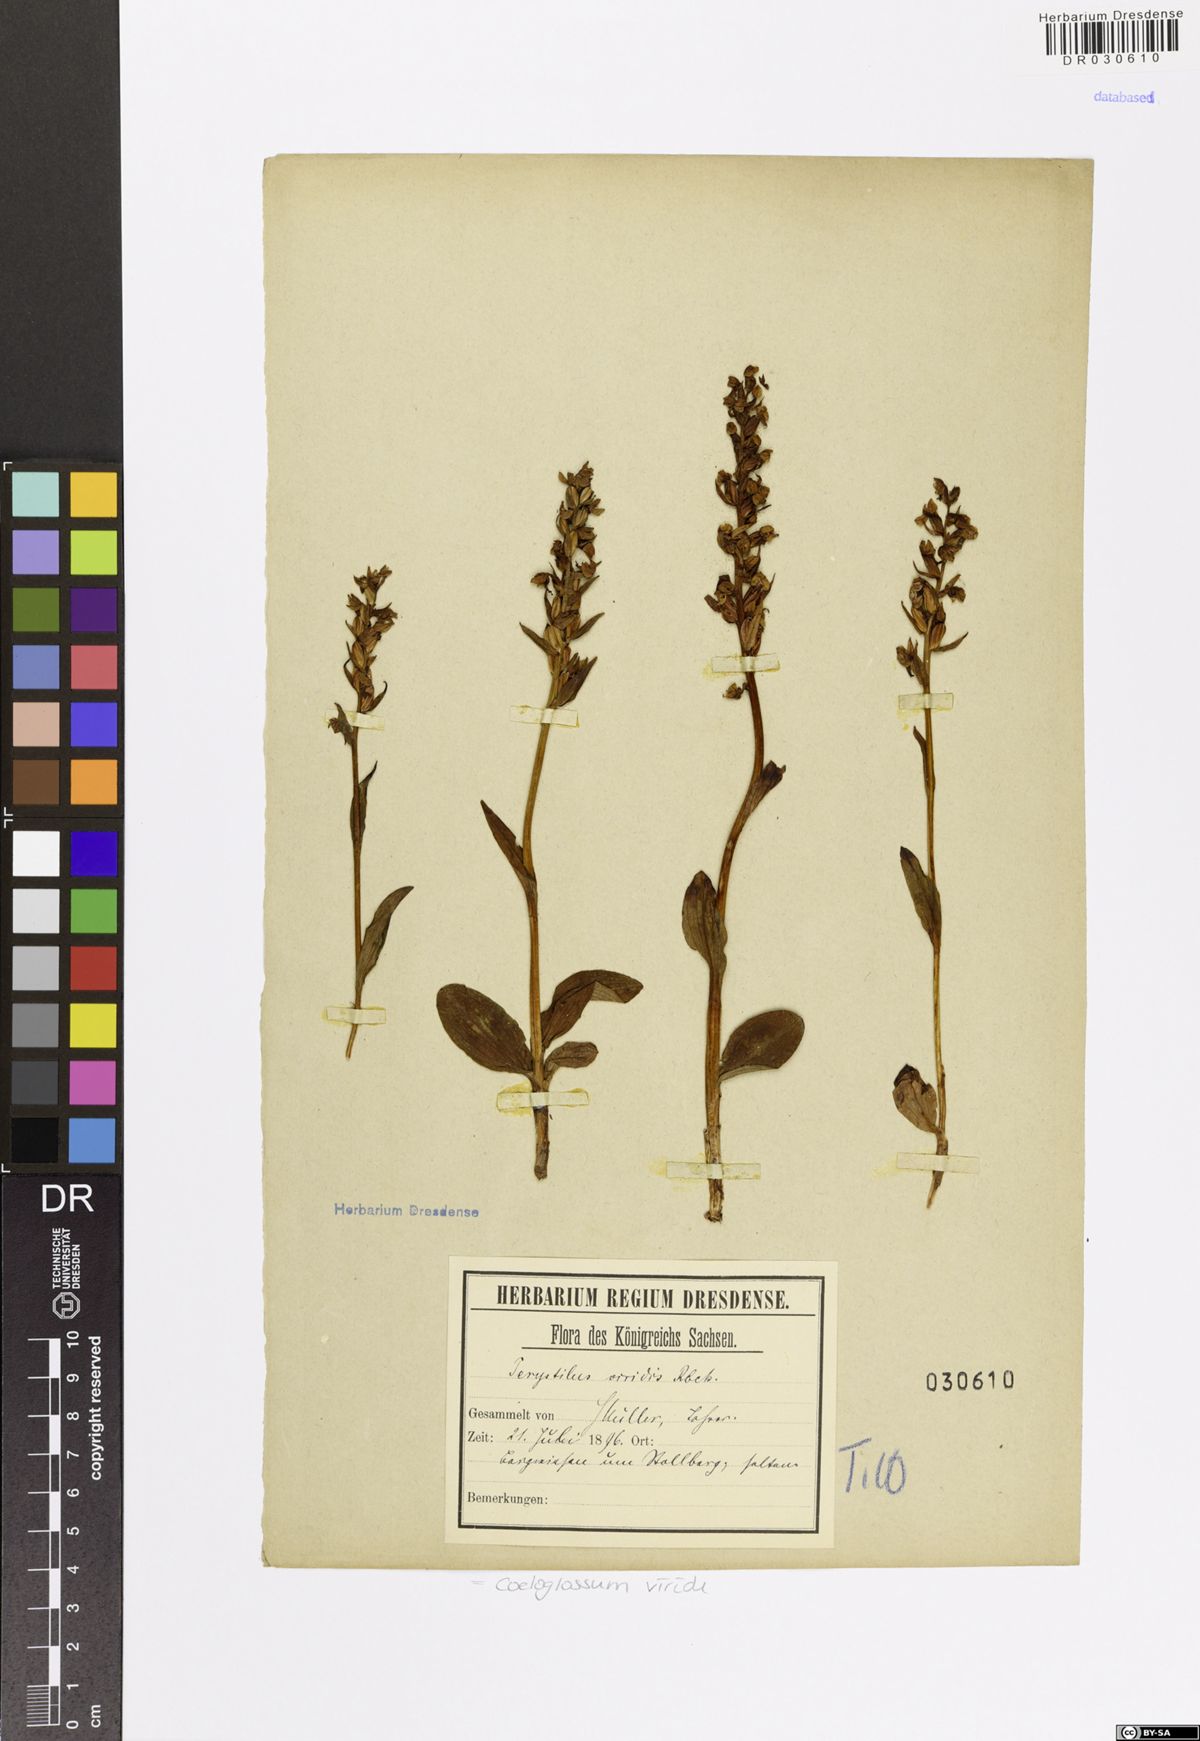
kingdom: Plantae
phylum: Tracheophyta
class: Liliopsida
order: Asparagales
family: Orchidaceae
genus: Dactylorhiza
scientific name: Dactylorhiza viridis
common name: Longbract frog orchid
